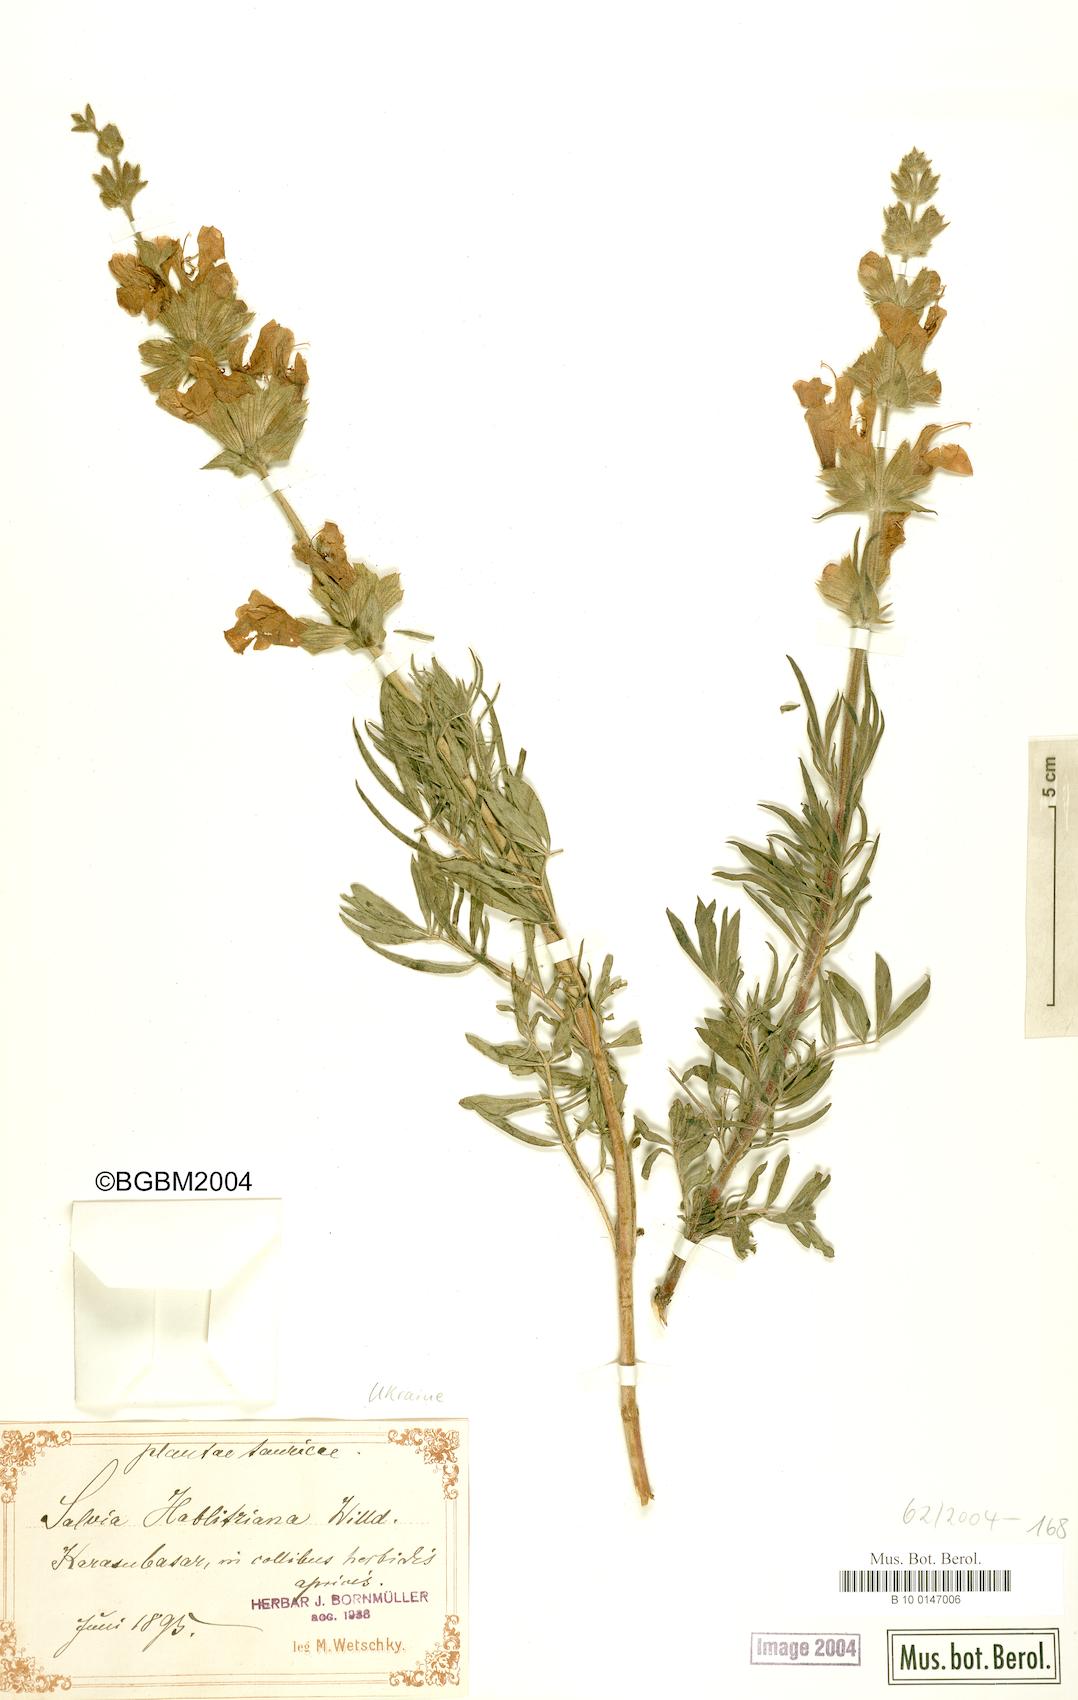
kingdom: Plantae
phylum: Tracheophyta
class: Magnoliopsida
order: Lamiales
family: Lamiaceae
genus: Salvia
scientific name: Salvia scabiosifolia
